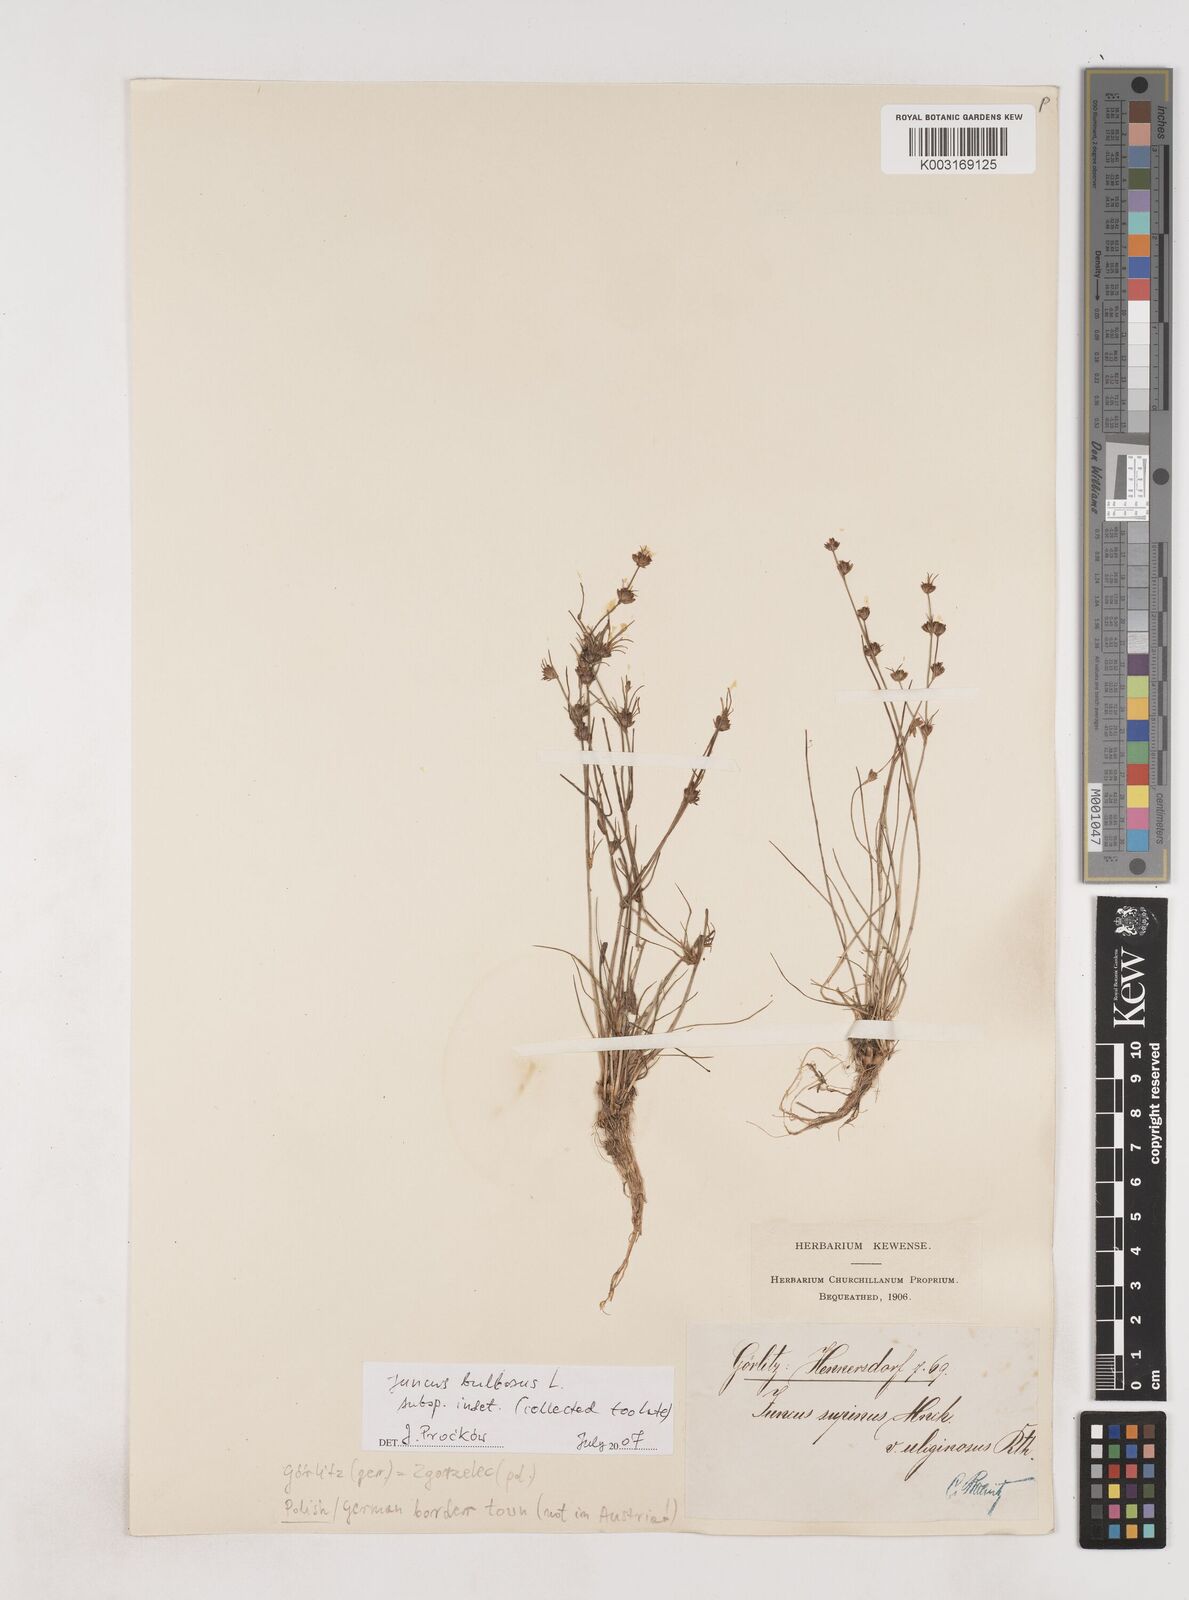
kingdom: Plantae
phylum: Tracheophyta
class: Liliopsida
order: Poales
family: Juncaceae
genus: Juncus
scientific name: Juncus bulbosus
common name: Bulbous rush
